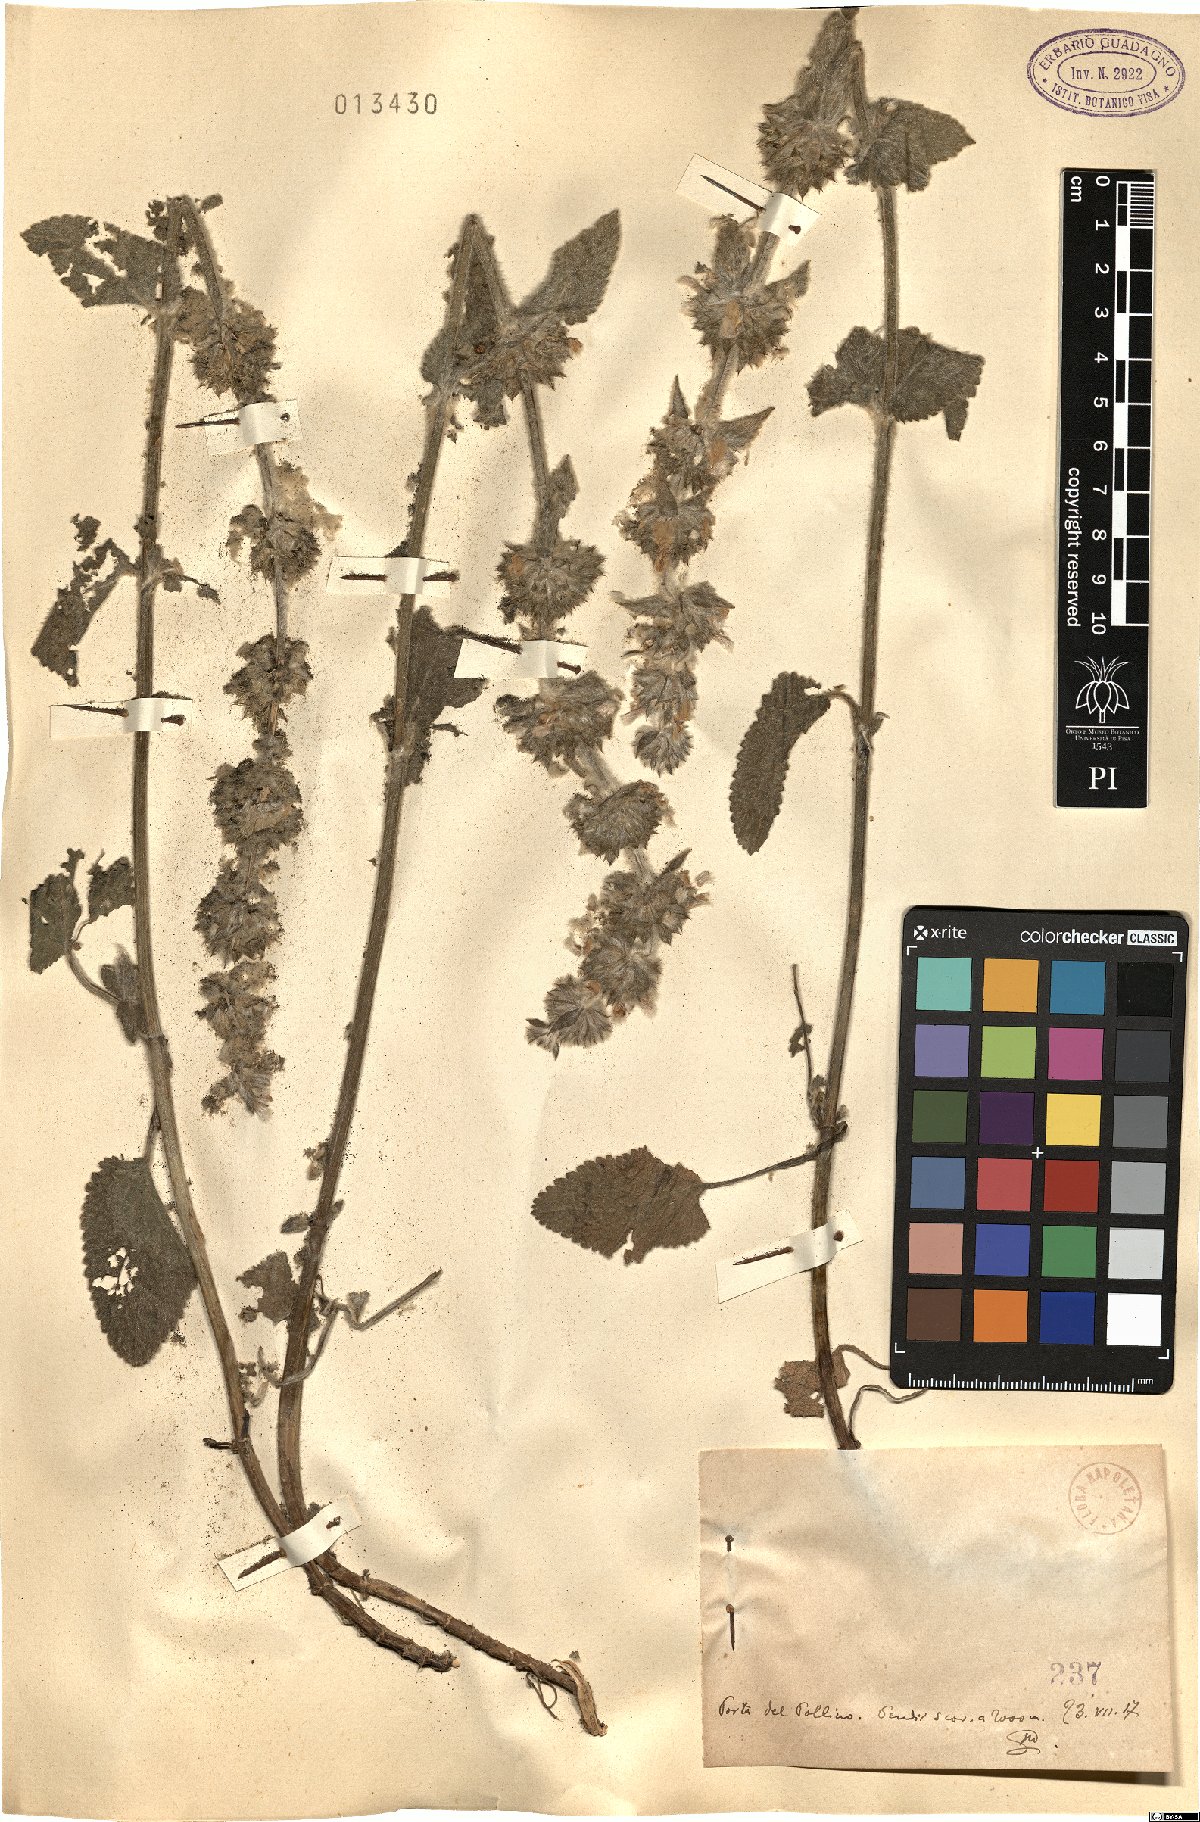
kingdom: Plantae
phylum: Tracheophyta
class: Magnoliopsida
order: Lamiales
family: Lamiaceae
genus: Stachys
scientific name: Stachys
